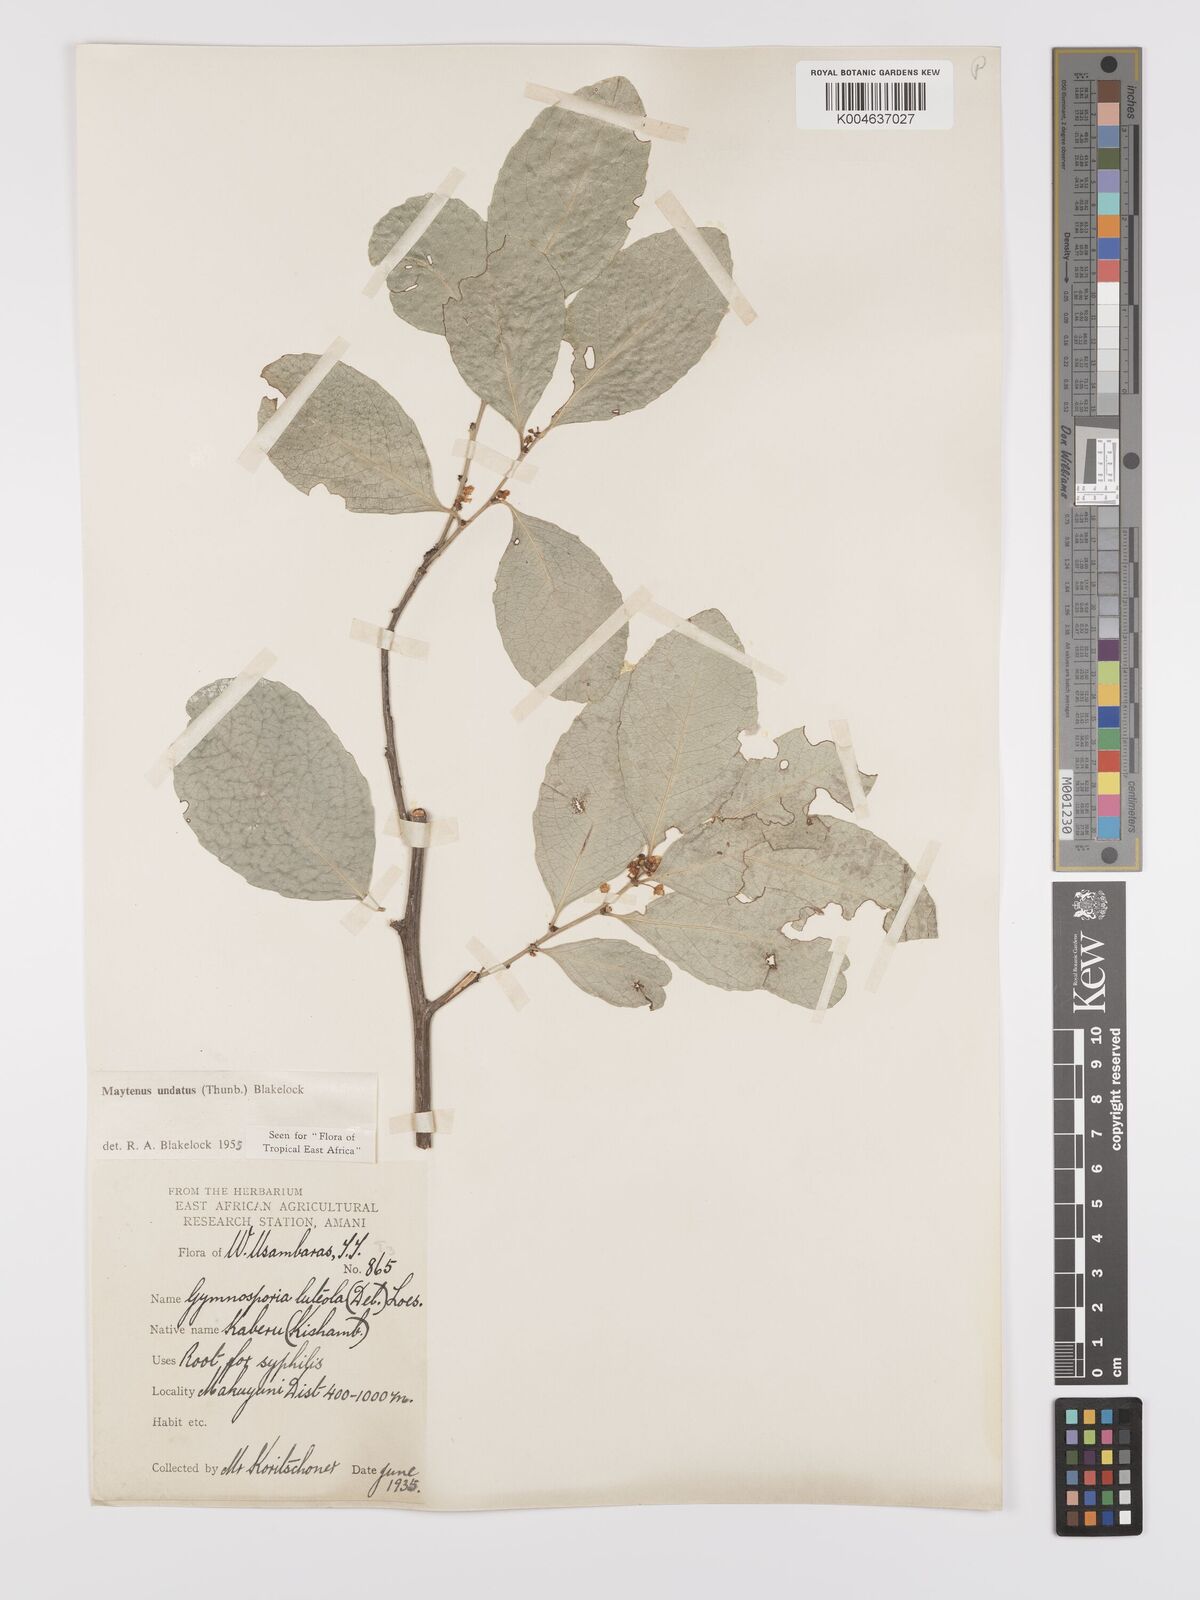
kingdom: Plantae
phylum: Tracheophyta
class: Magnoliopsida
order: Celastrales
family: Celastraceae
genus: Gymnosporia
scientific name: Gymnosporia undata
